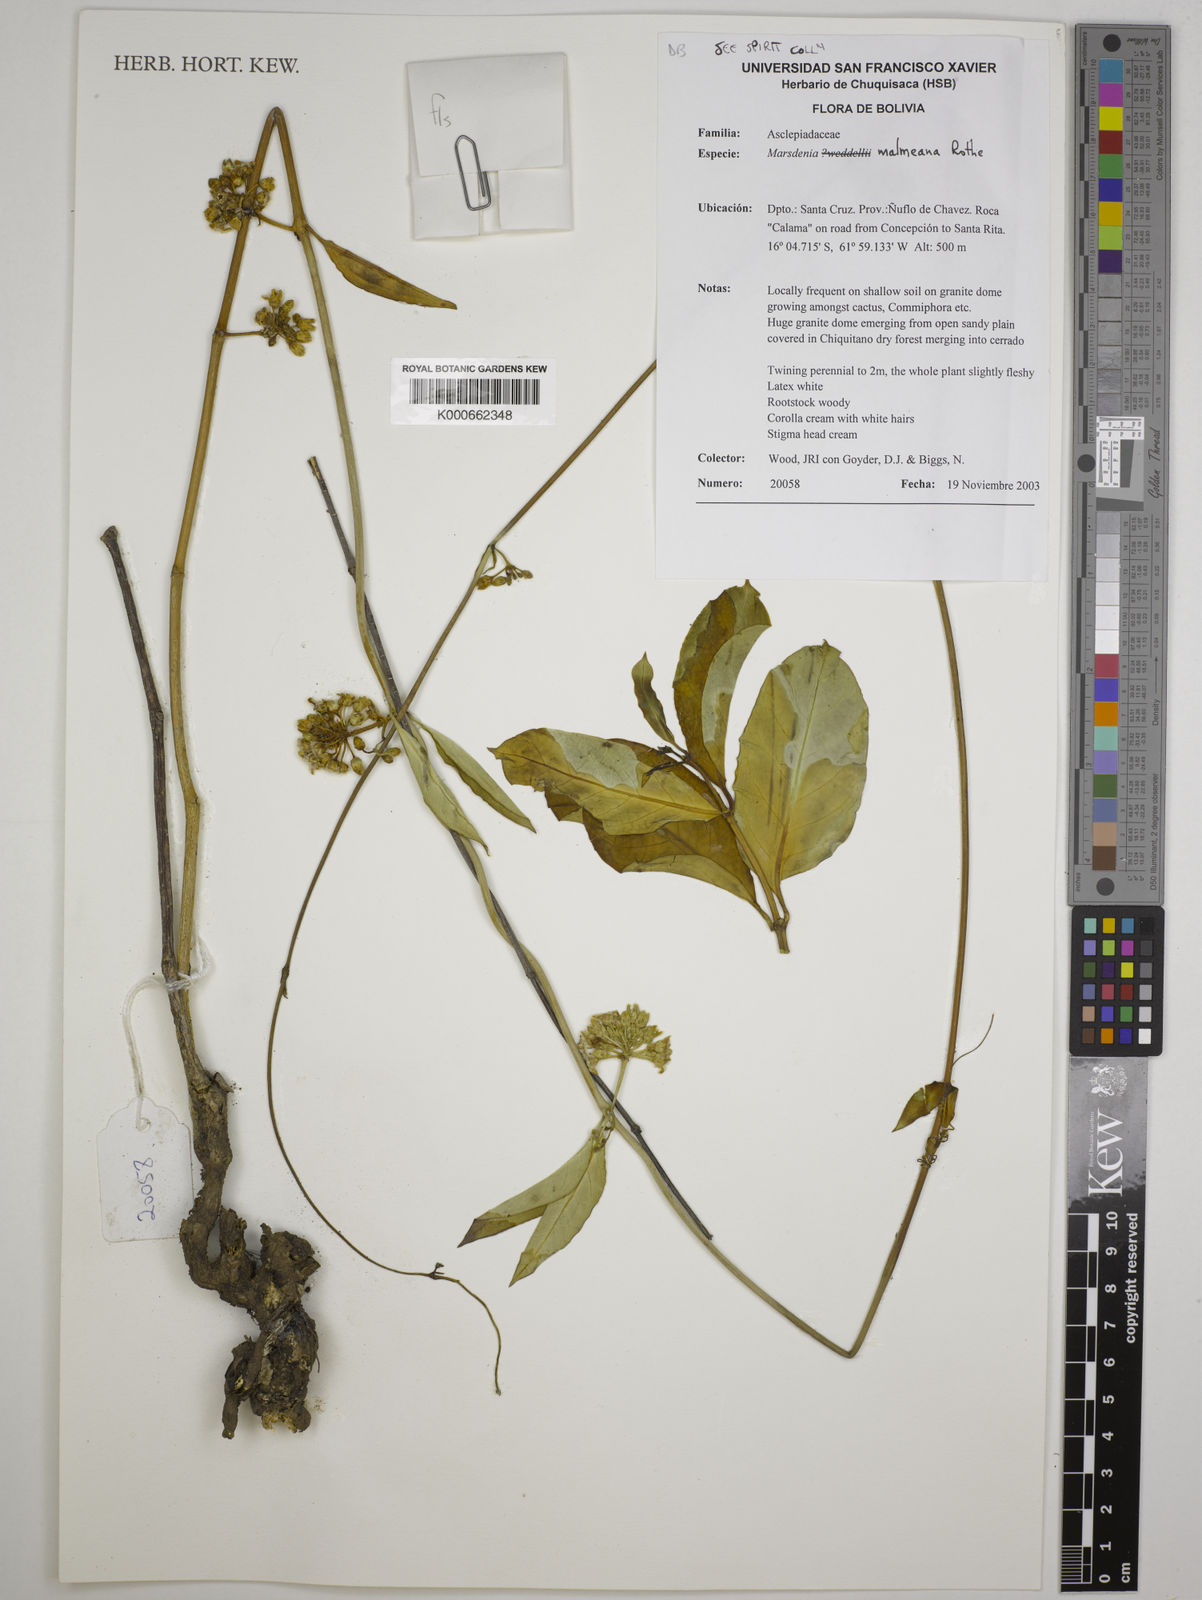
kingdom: Plantae
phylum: Tracheophyta
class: Magnoliopsida
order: Gentianales
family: Apocynaceae
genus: Ruehssia
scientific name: Ruehssia malmeana
